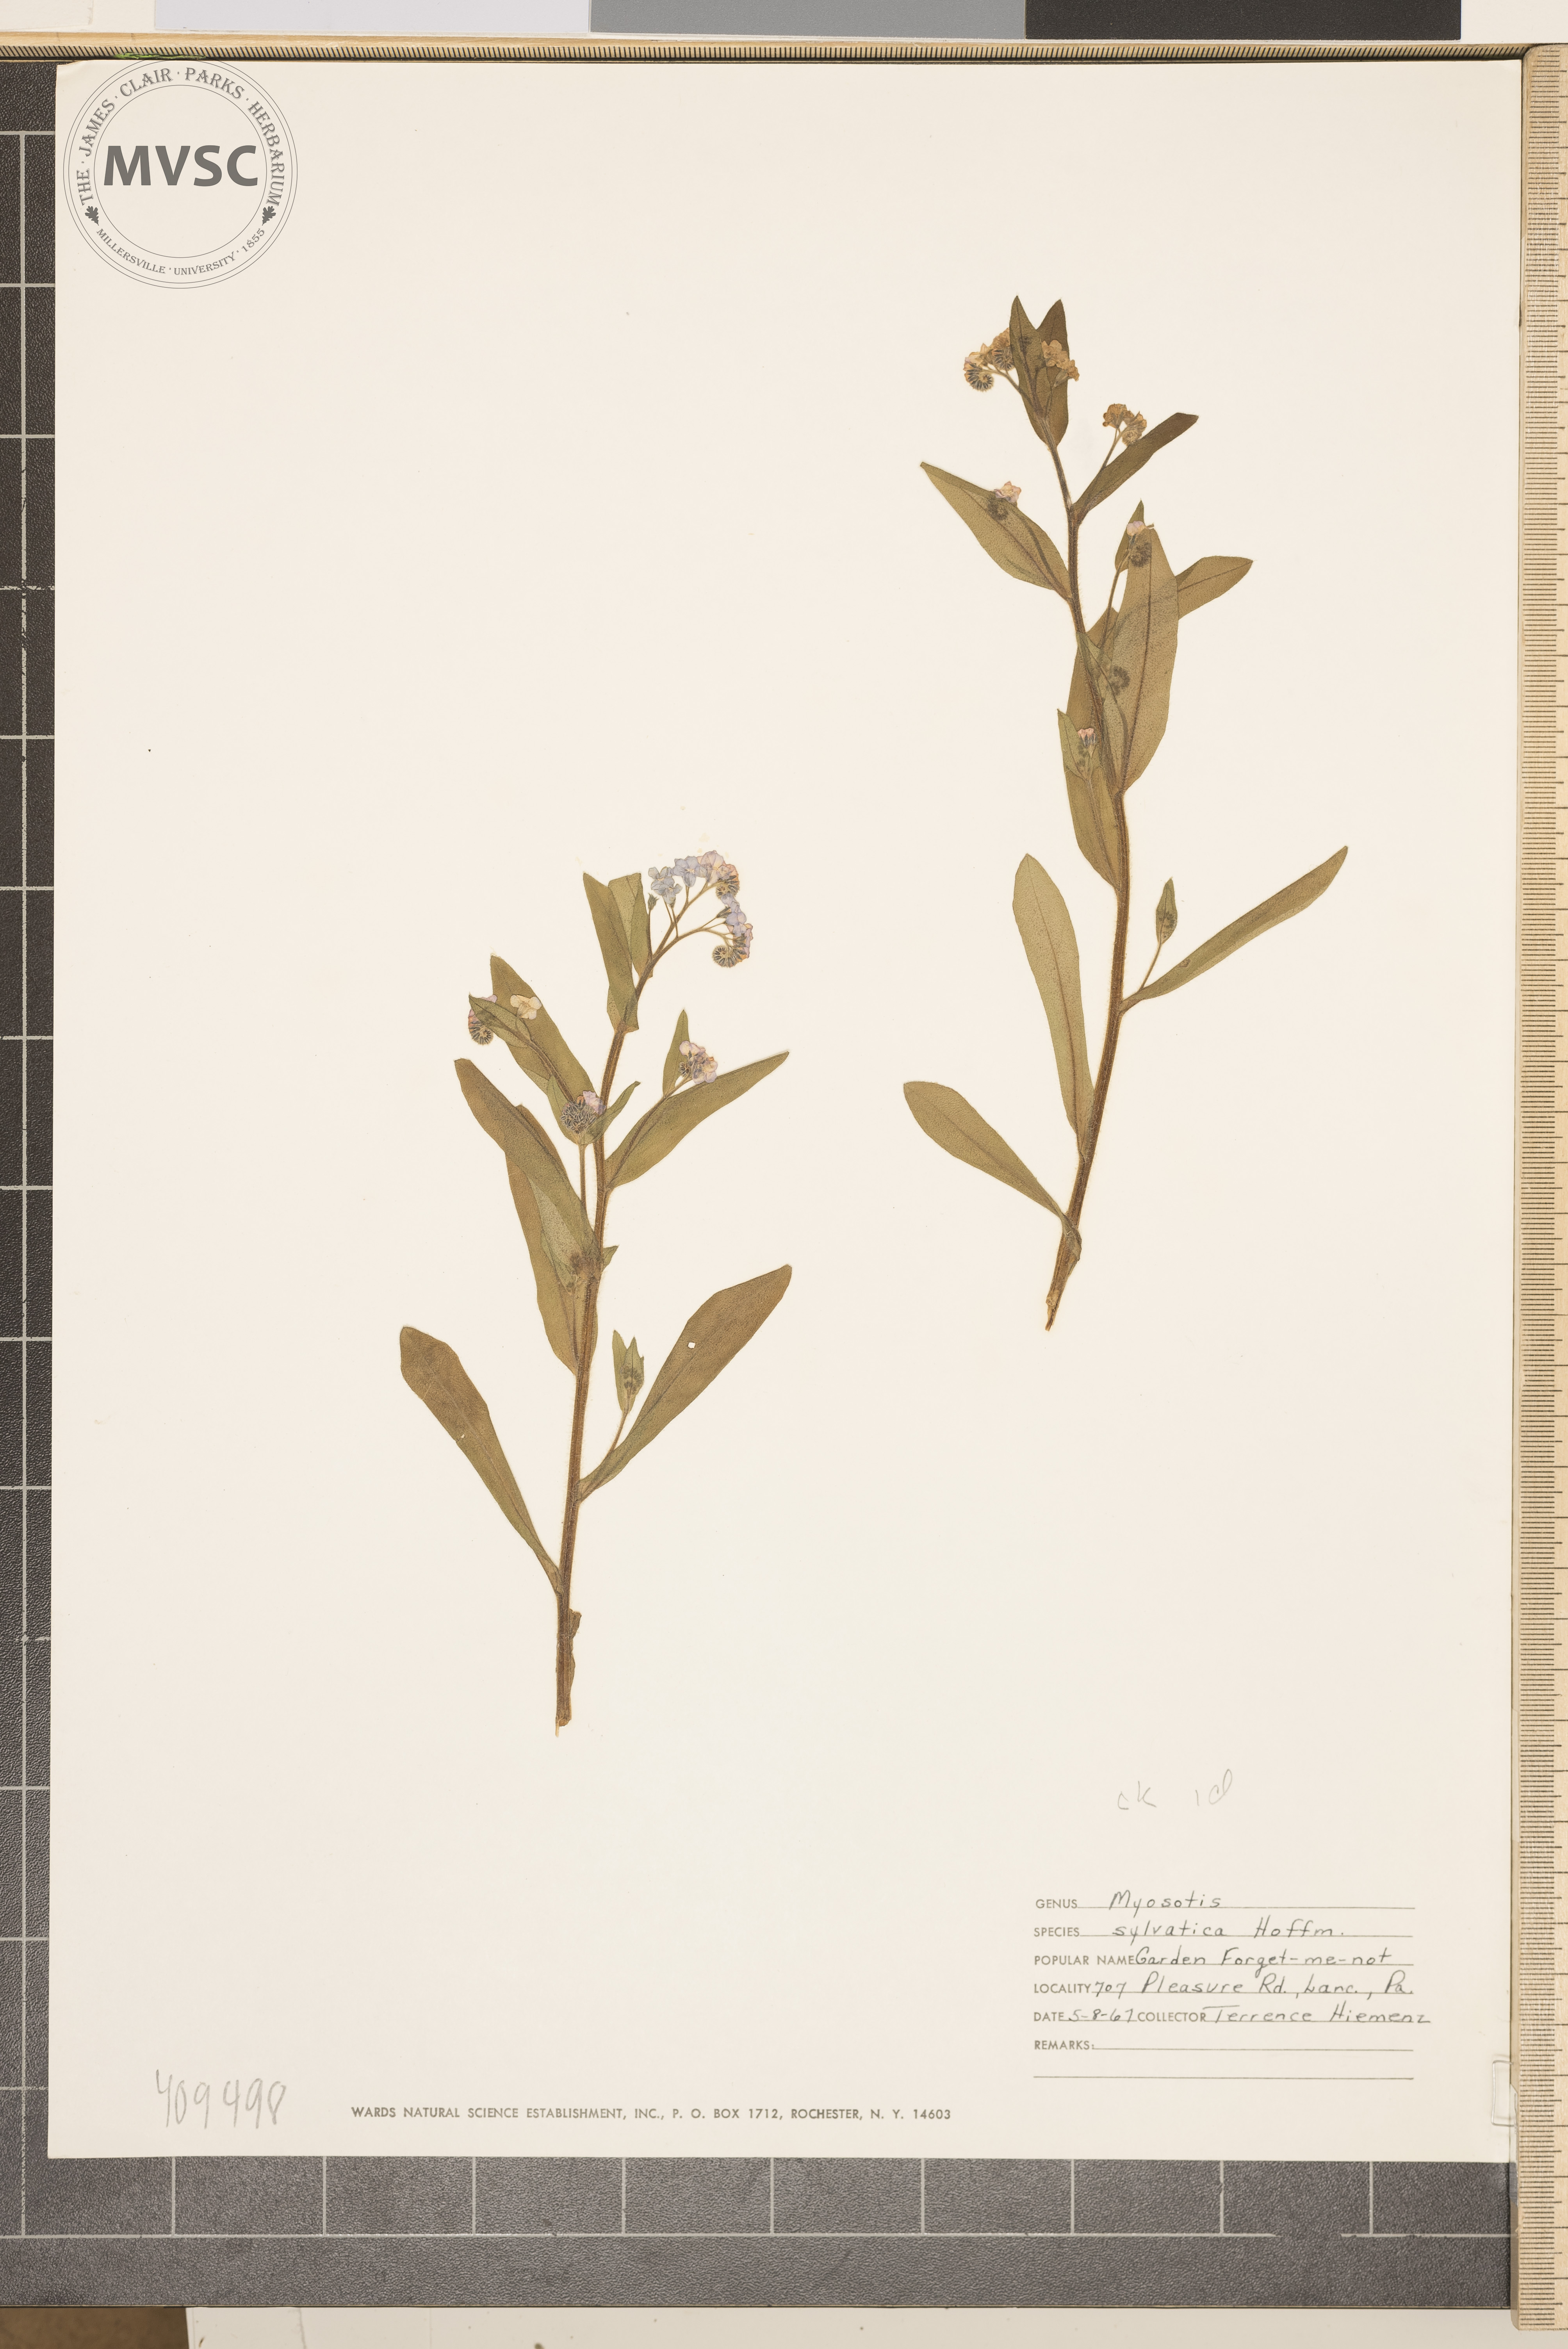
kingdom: Plantae
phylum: Tracheophyta
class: Magnoliopsida
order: Boraginales
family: Boraginaceae
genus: Myosotis
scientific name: Myosotis sylvatica
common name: Wood forget-me-not
